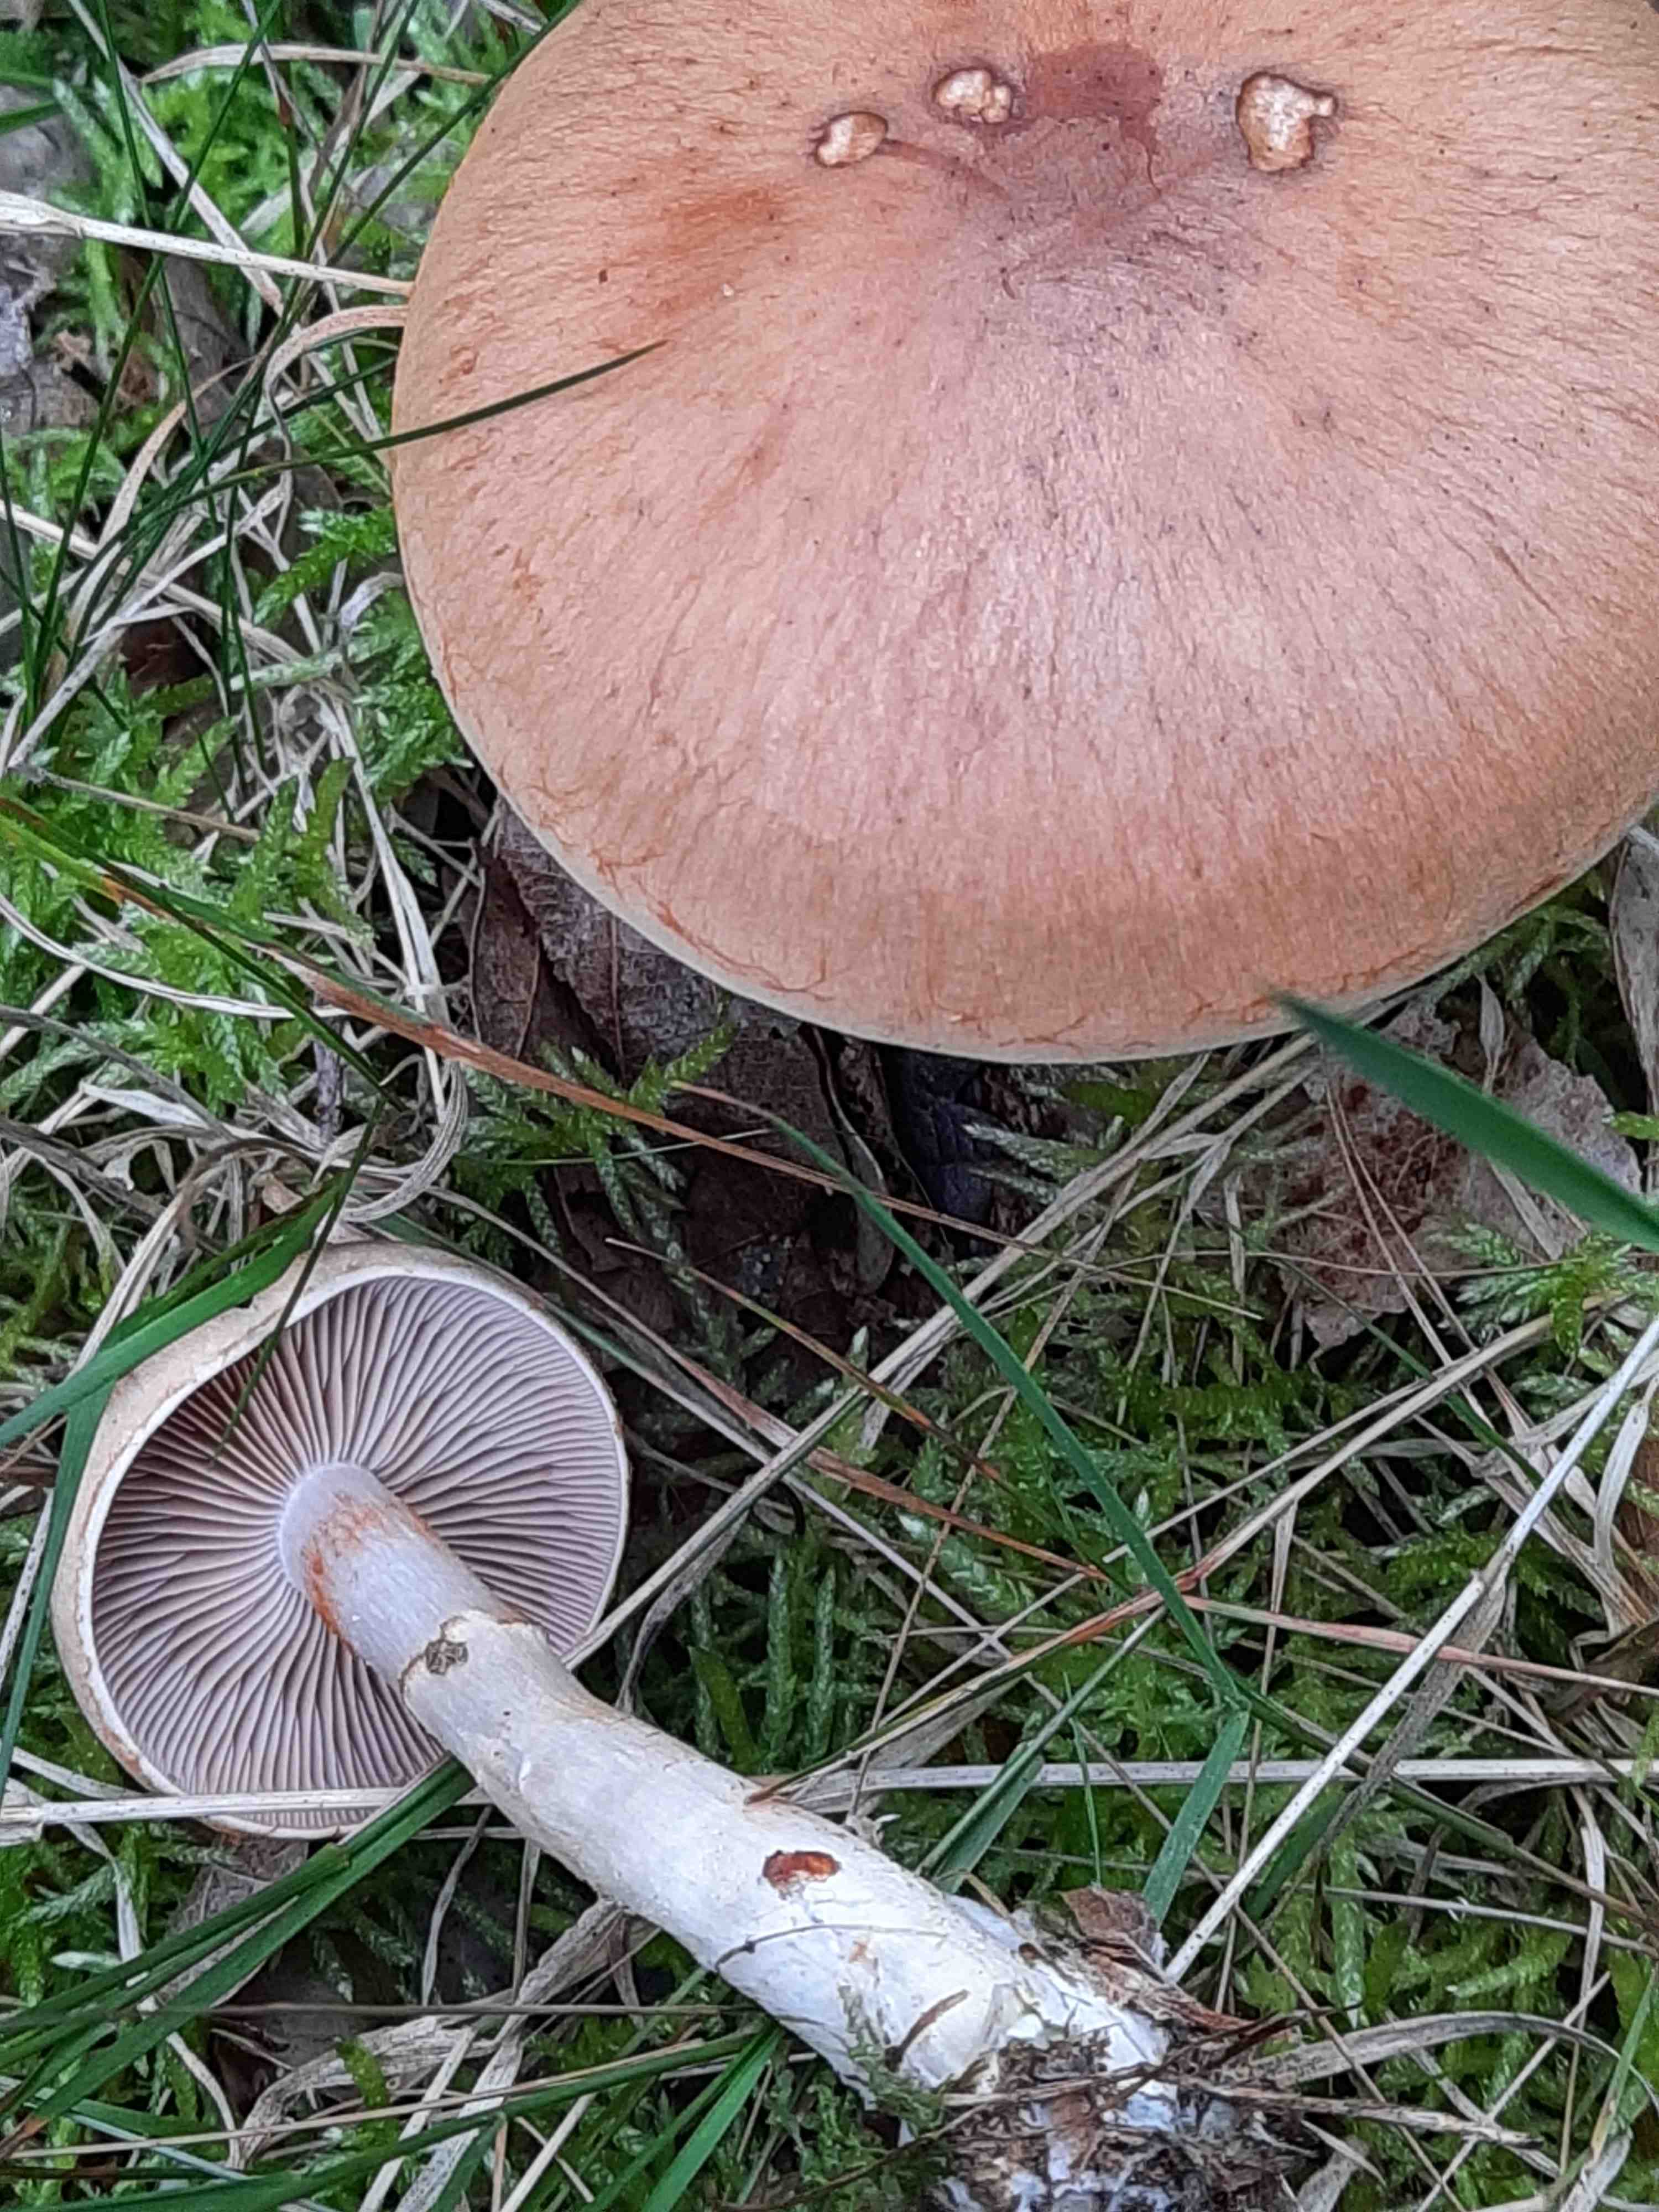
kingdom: Fungi
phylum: Basidiomycota
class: Agaricomycetes
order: Agaricales
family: Cortinariaceae
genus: Cortinarius
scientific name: Cortinarius caninus
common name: gran-slørhat
